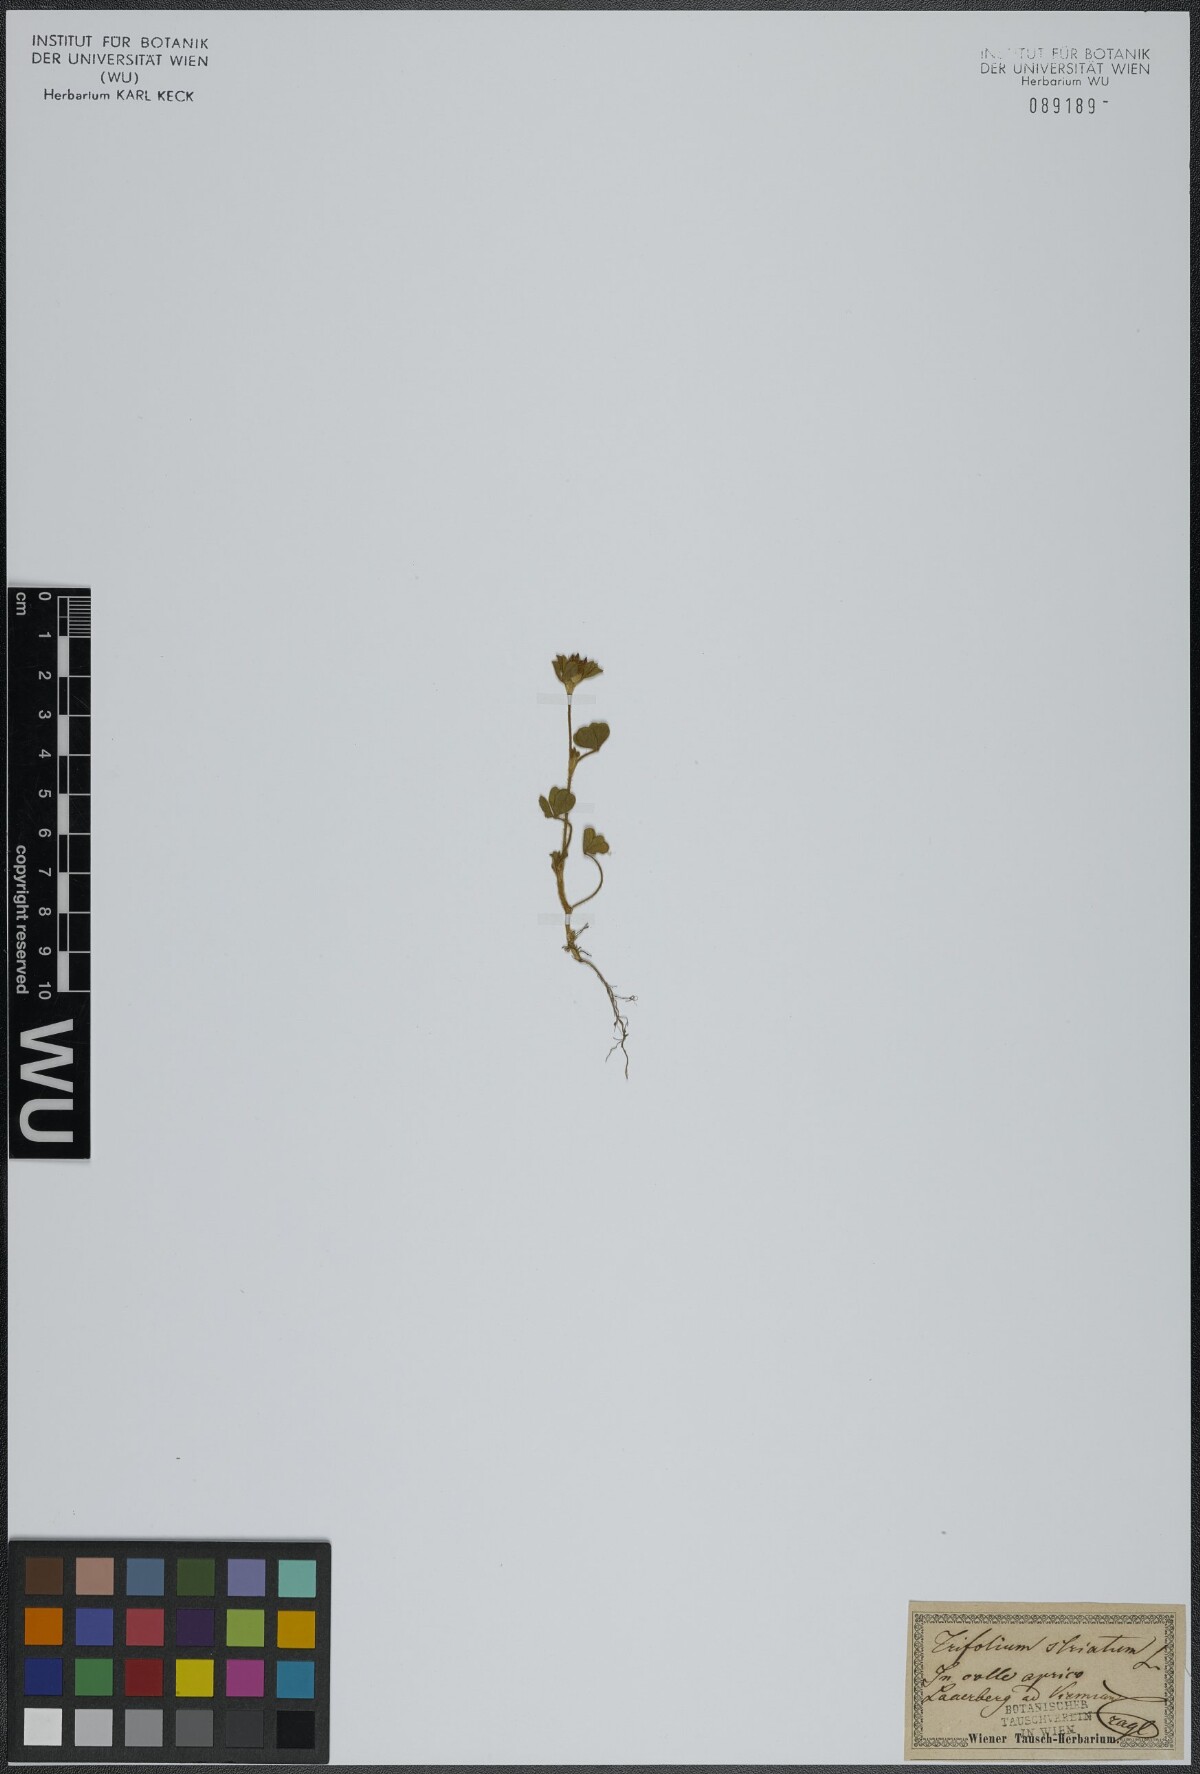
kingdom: Plantae
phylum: Tracheophyta
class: Magnoliopsida
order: Fabales
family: Fabaceae
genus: Trifolium
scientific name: Trifolium striatum
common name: Knotted clover
